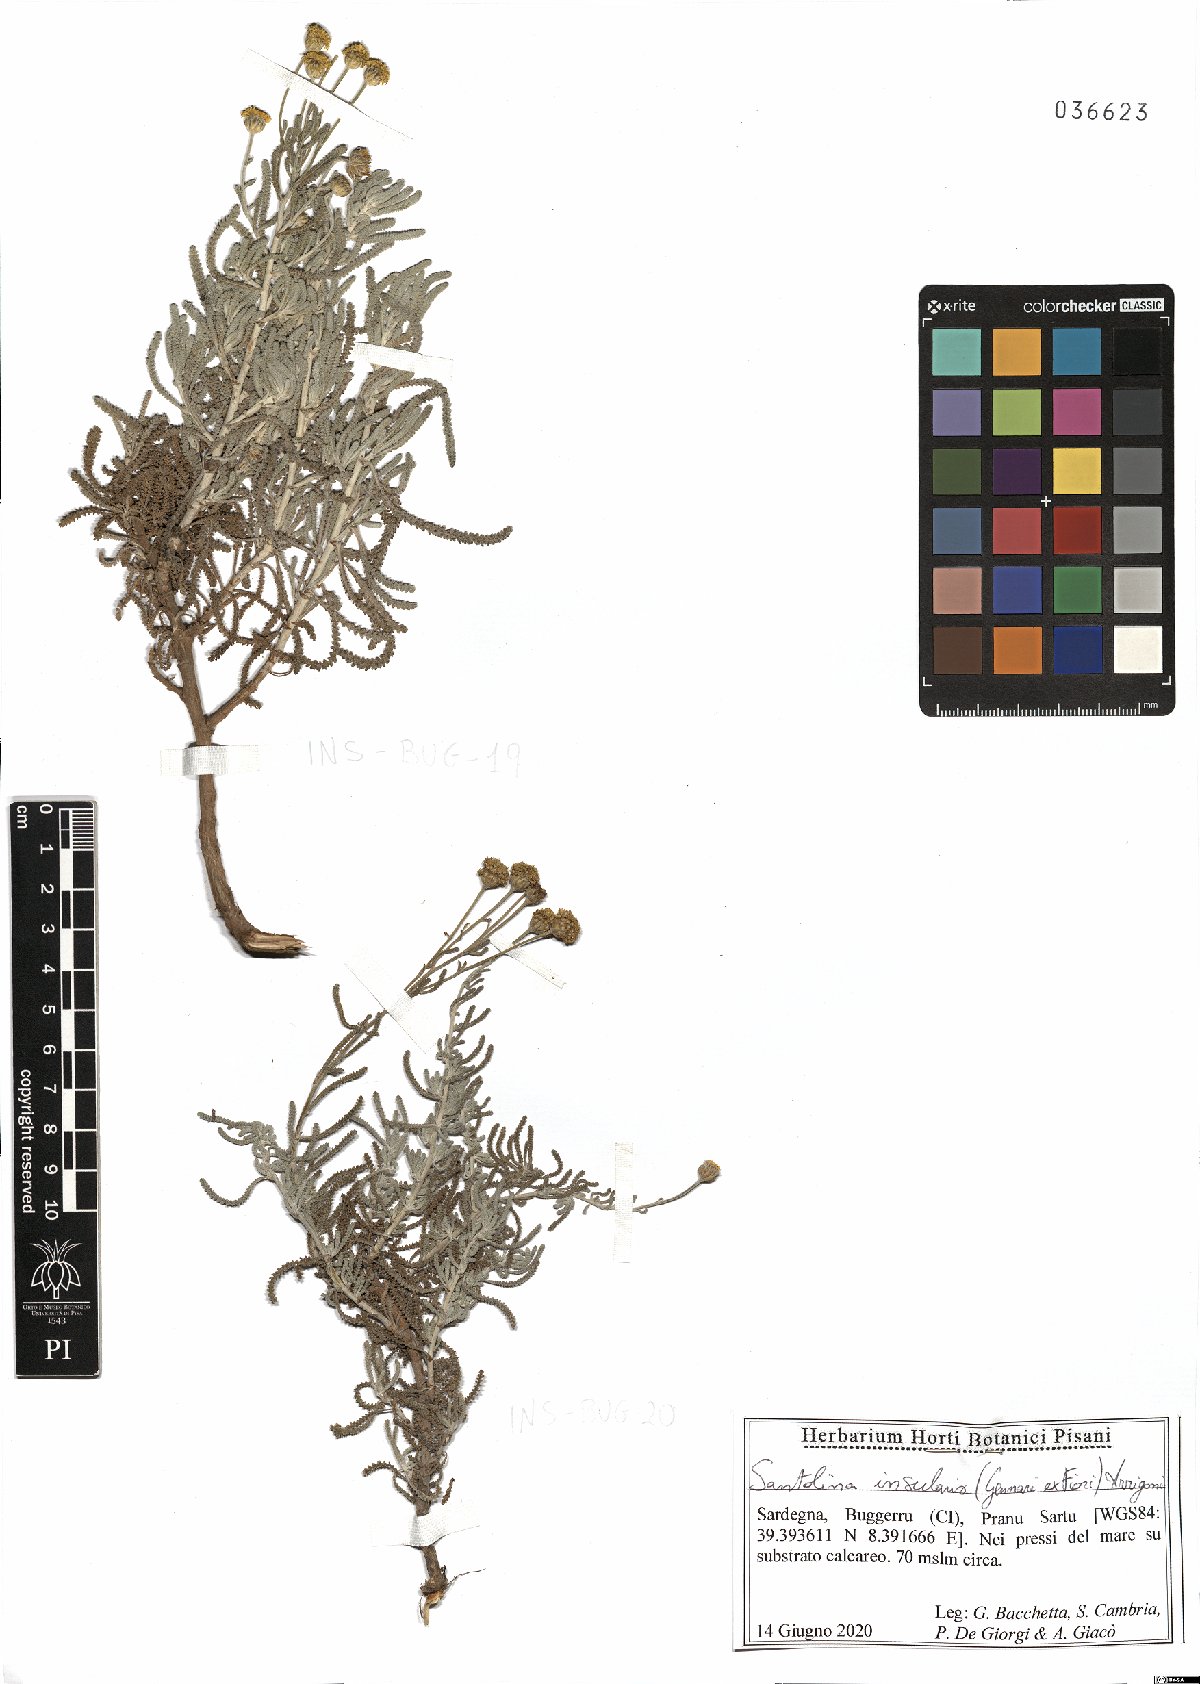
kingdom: Plantae
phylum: Tracheophyta
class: Magnoliopsida
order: Asterales
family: Asteraceae
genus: Santolina
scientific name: Santolina insularis
